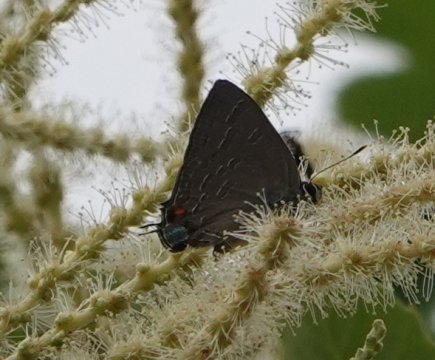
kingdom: Animalia
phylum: Arthropoda
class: Insecta
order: Lepidoptera
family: Lycaenidae
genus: Satyrium
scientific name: Satyrium calanus
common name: Banded Hairstreak
